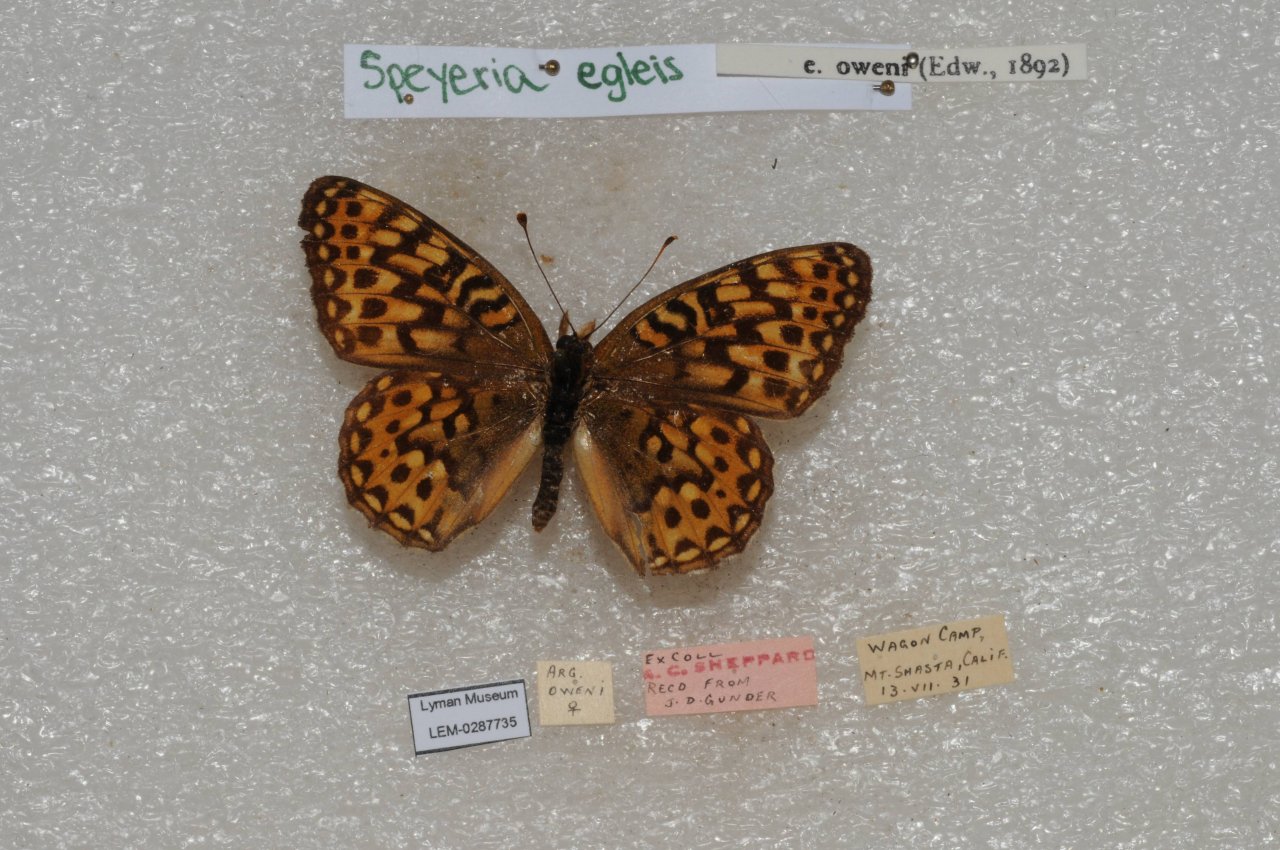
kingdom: Animalia
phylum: Arthropoda
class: Insecta
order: Lepidoptera
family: Nymphalidae
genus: Speyeria
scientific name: Speyeria egleis
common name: Great Basin Fritillary
